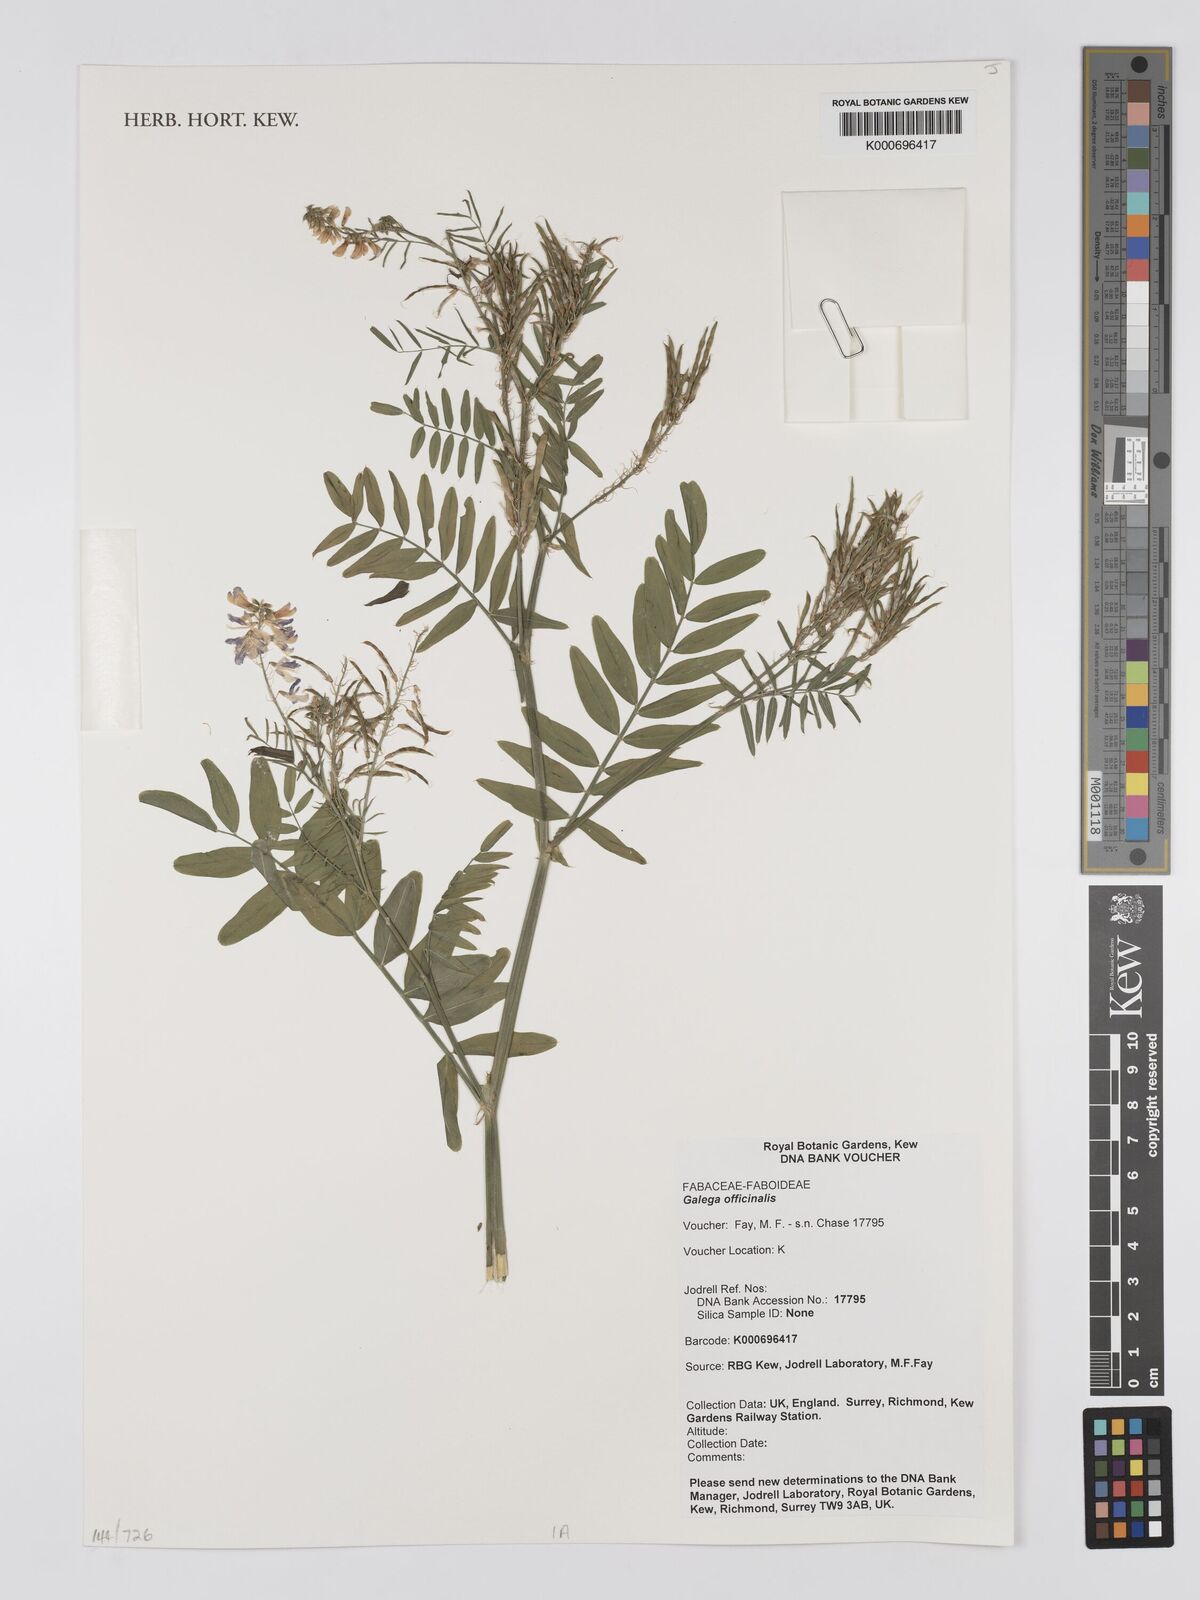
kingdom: Plantae
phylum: Tracheophyta
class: Magnoliopsida
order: Fabales
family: Fabaceae
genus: Galega
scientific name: Galega officinalis
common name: Goat's-rue
